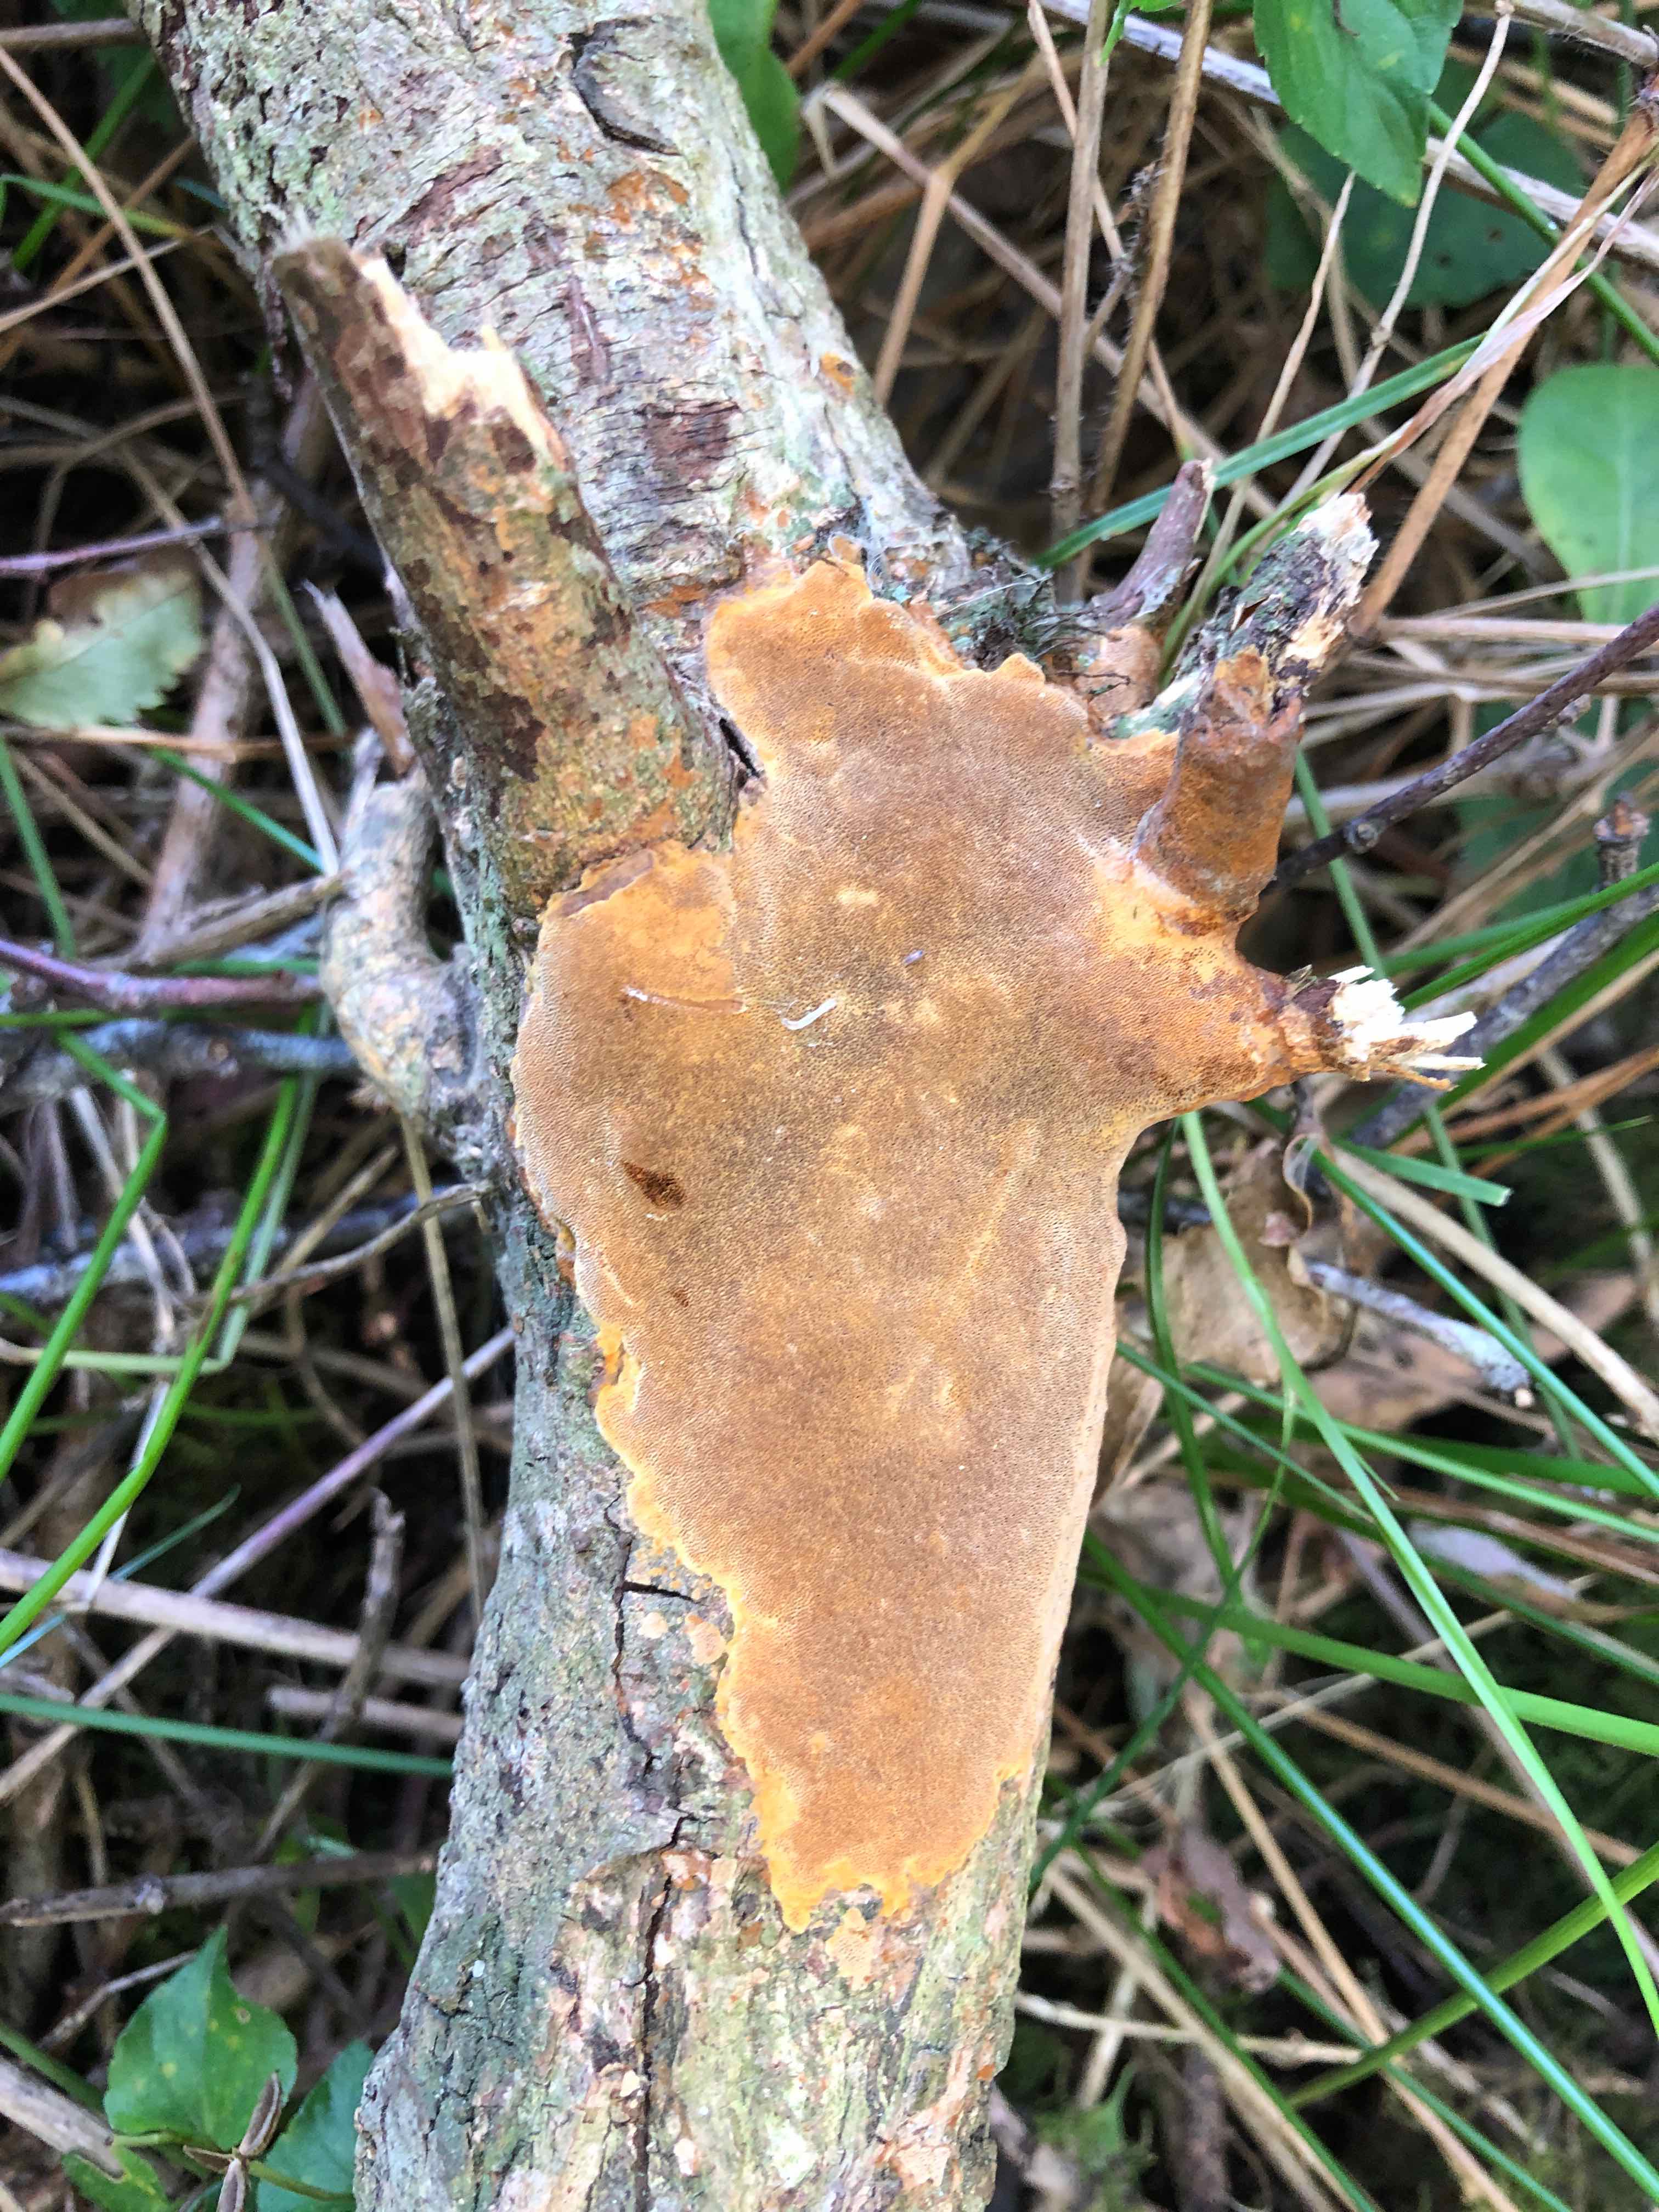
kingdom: Fungi
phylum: Basidiomycota
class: Agaricomycetes
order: Hymenochaetales
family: Hymenochaetaceae
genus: Fomitiporia
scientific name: Fomitiporia punctata
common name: pude-ildporesvamp
